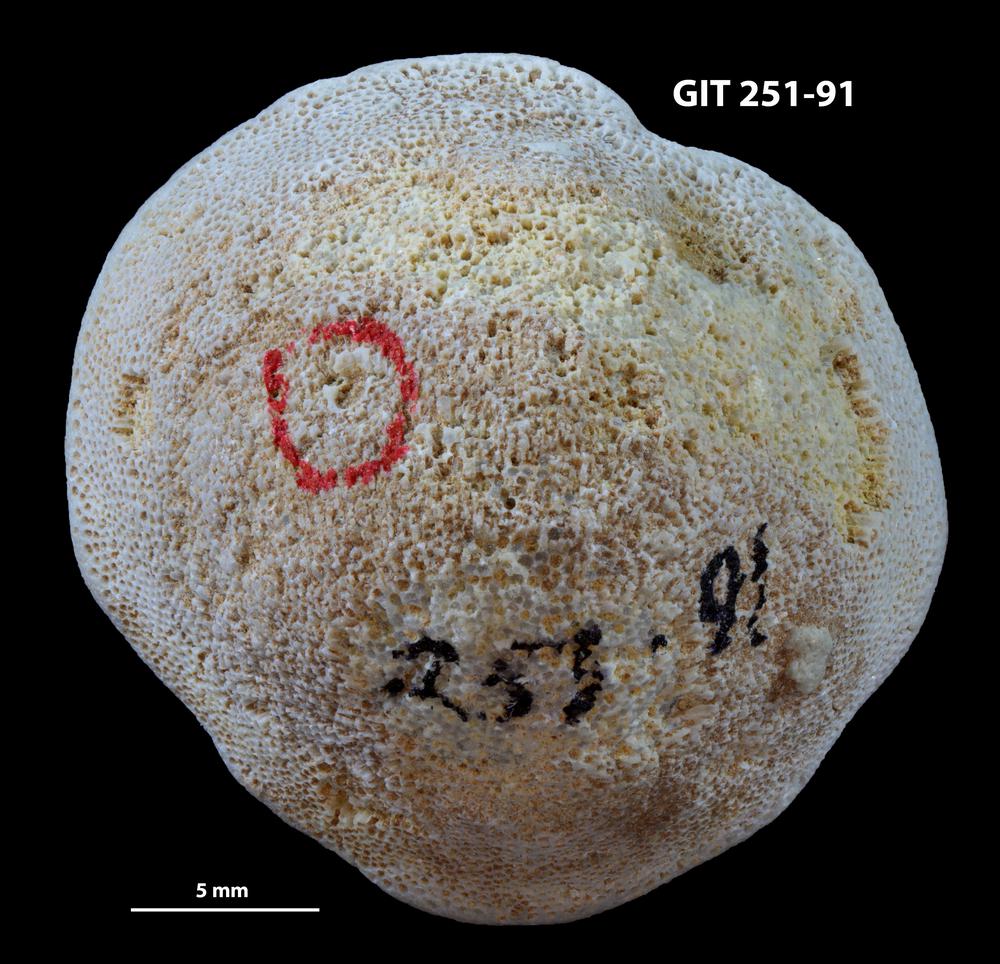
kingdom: Animalia
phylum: Bryozoa
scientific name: Bryozoa
